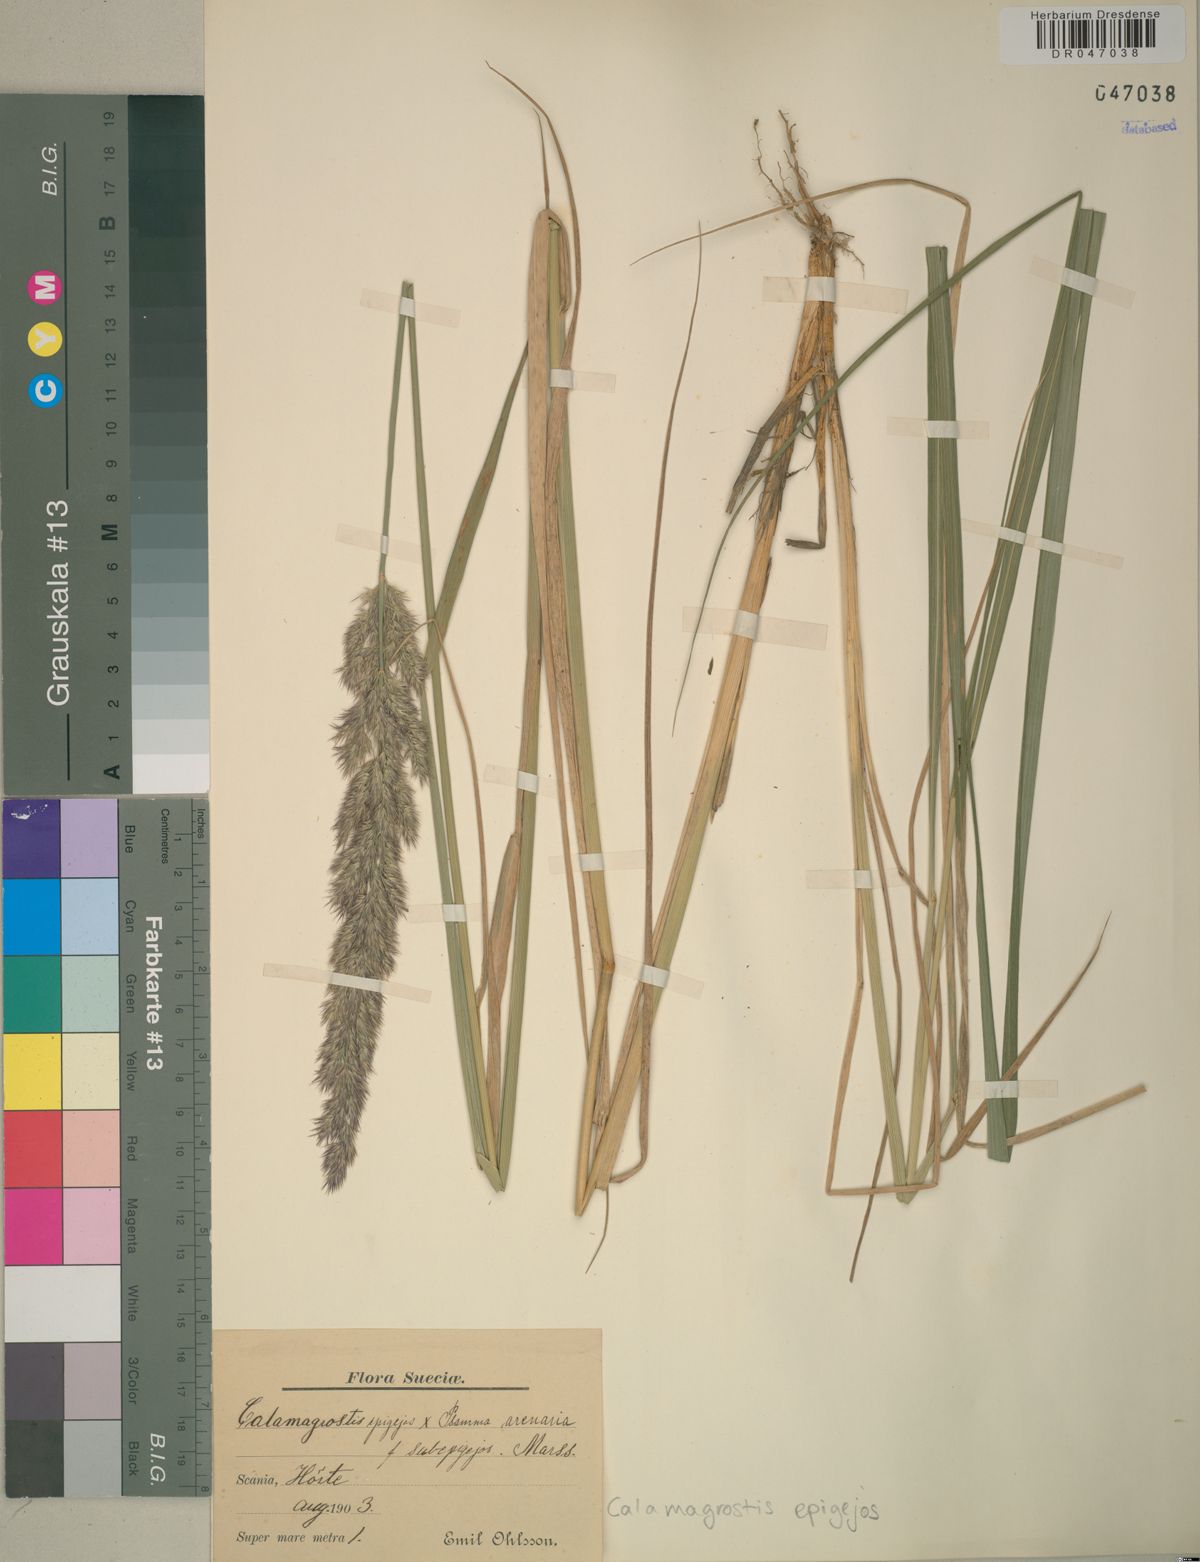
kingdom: Plantae
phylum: Tracheophyta
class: Liliopsida
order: Poales
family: Poaceae
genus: Calamagrostis
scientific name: Calamagrostis epigejos
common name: Wood small-reed
